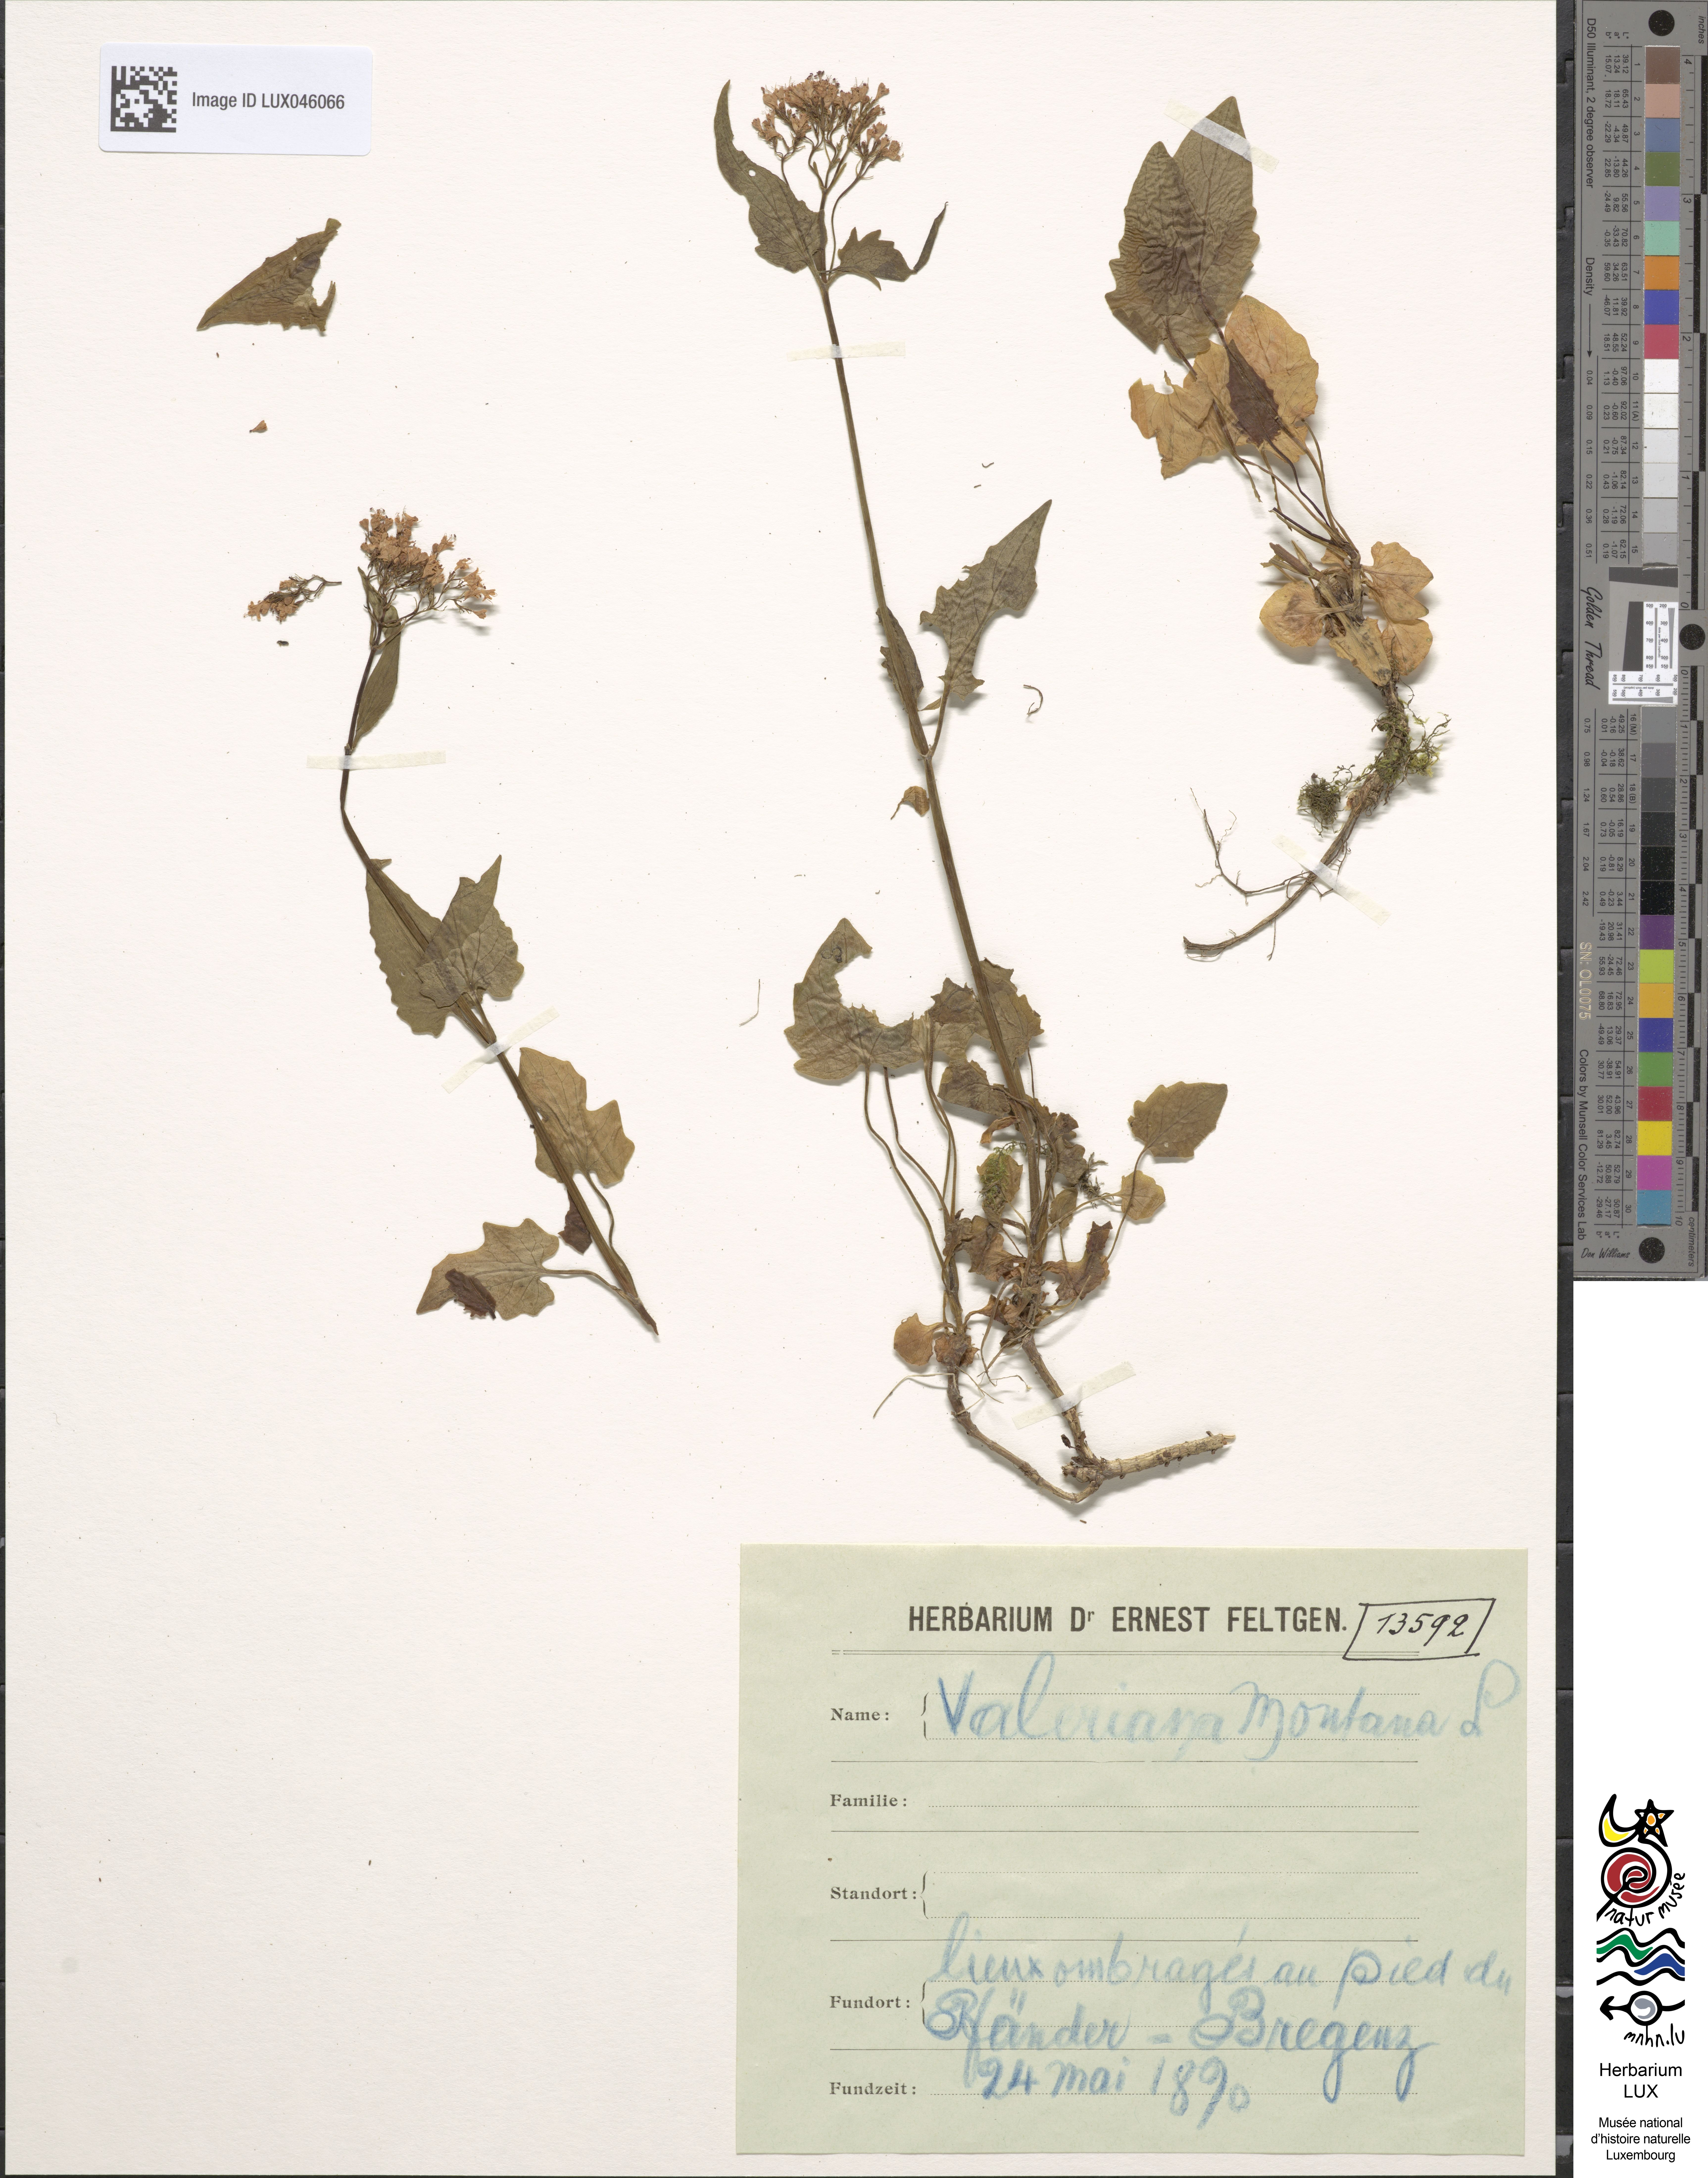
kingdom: Plantae
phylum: Tracheophyta
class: Magnoliopsida
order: Dipsacales
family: Caprifoliaceae
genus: Valeriana
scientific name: Valeriana montana
